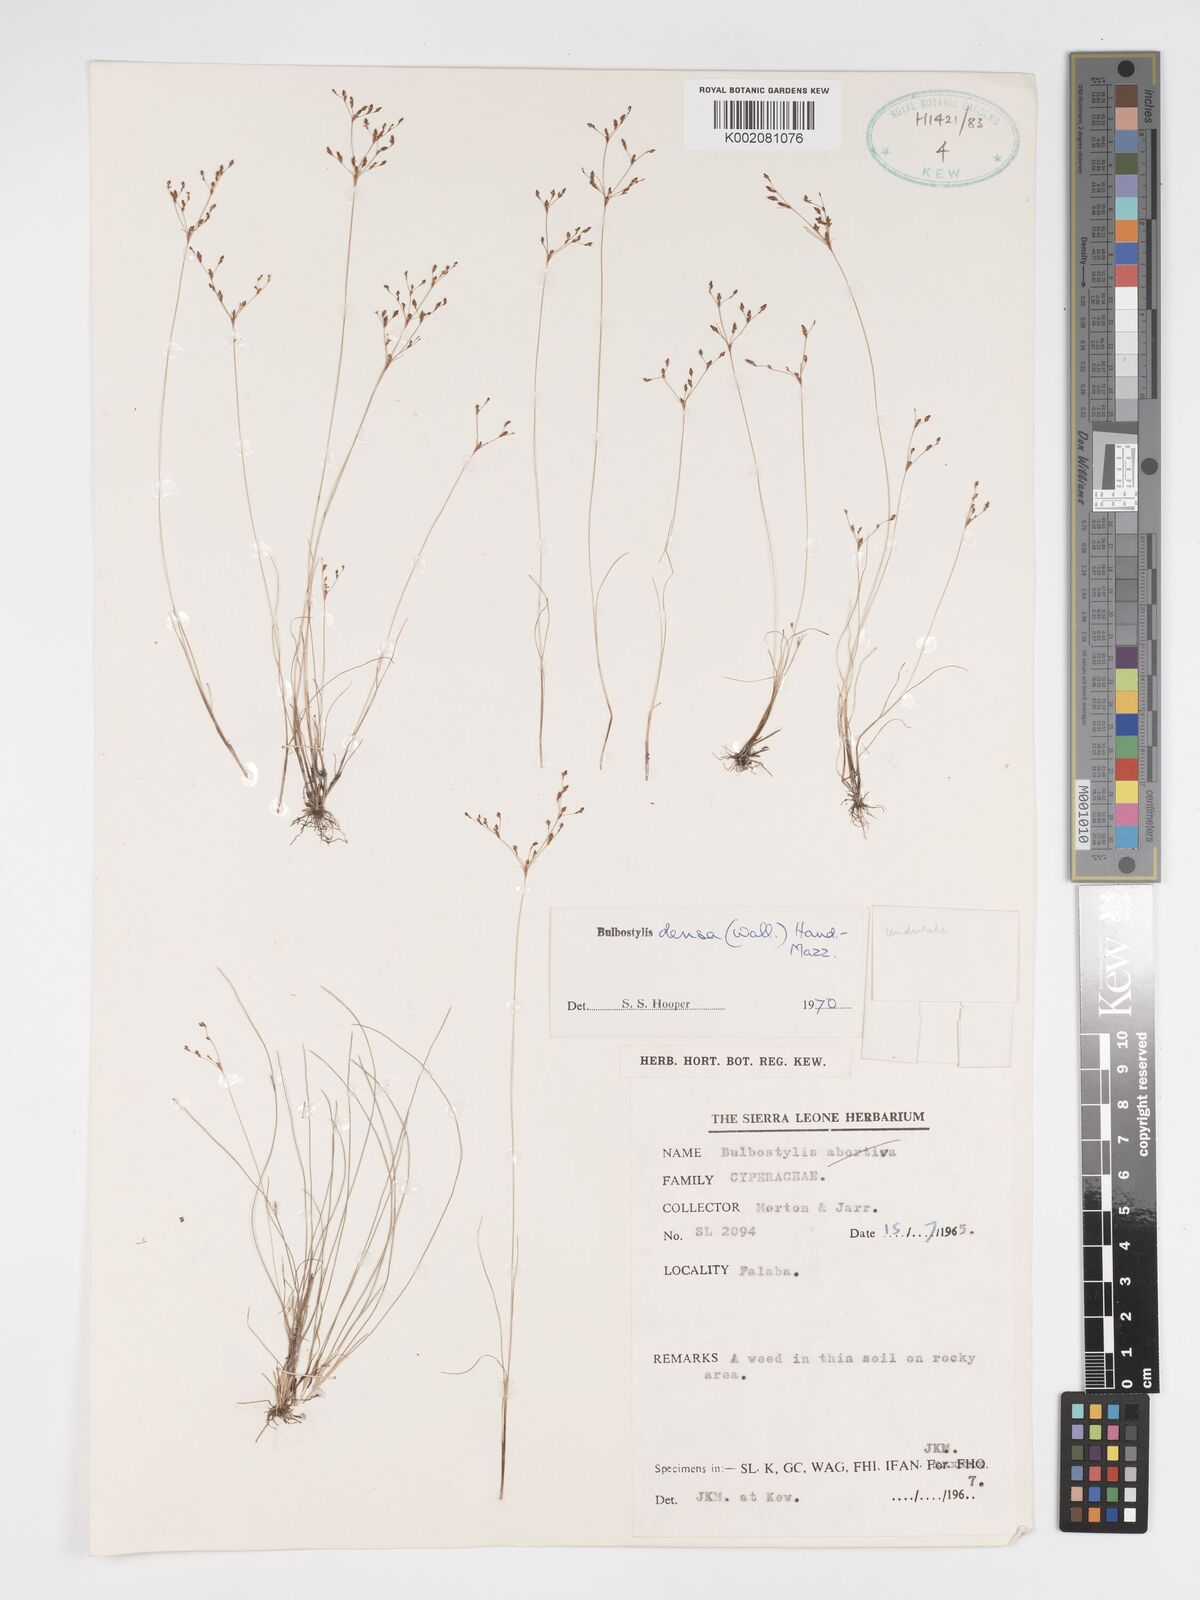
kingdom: Plantae
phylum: Tracheophyta
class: Liliopsida
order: Poales
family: Cyperaceae
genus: Bulbostylis
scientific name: Bulbostylis densa
